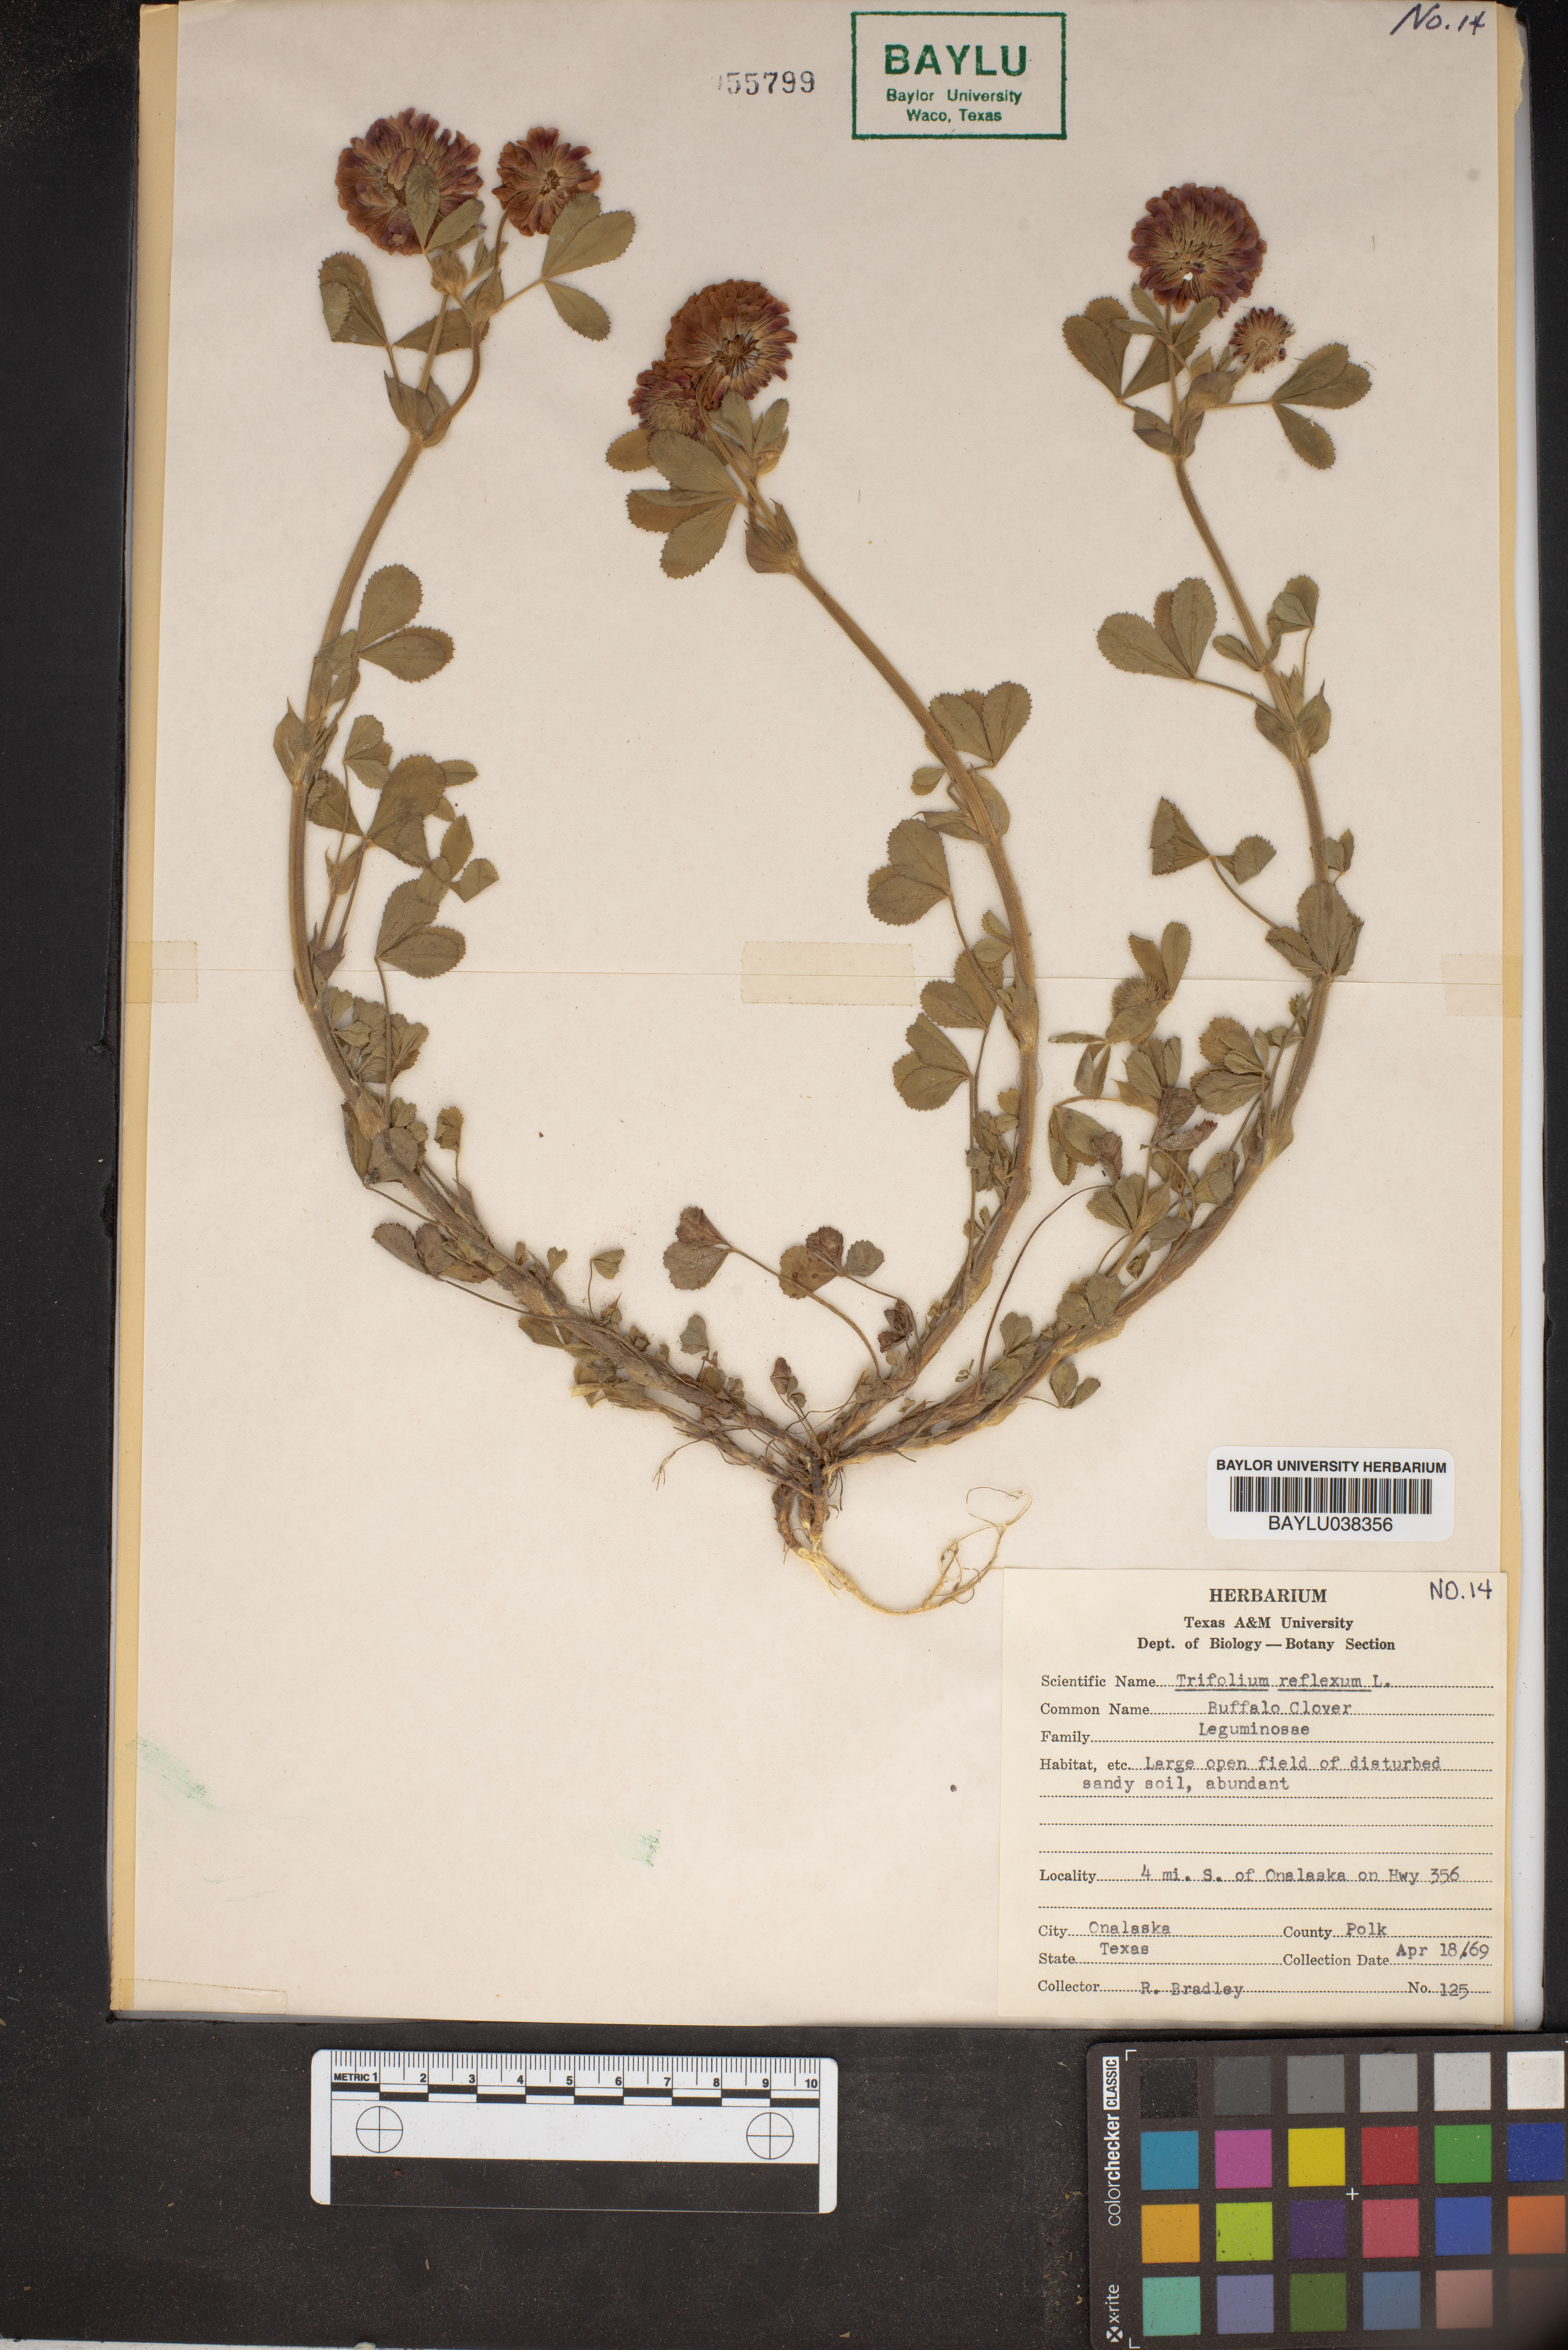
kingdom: Plantae
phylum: Tracheophyta
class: Magnoliopsida
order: Fabales
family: Fabaceae
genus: Trifolium
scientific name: Trifolium reflexum
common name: Buffalo clover
